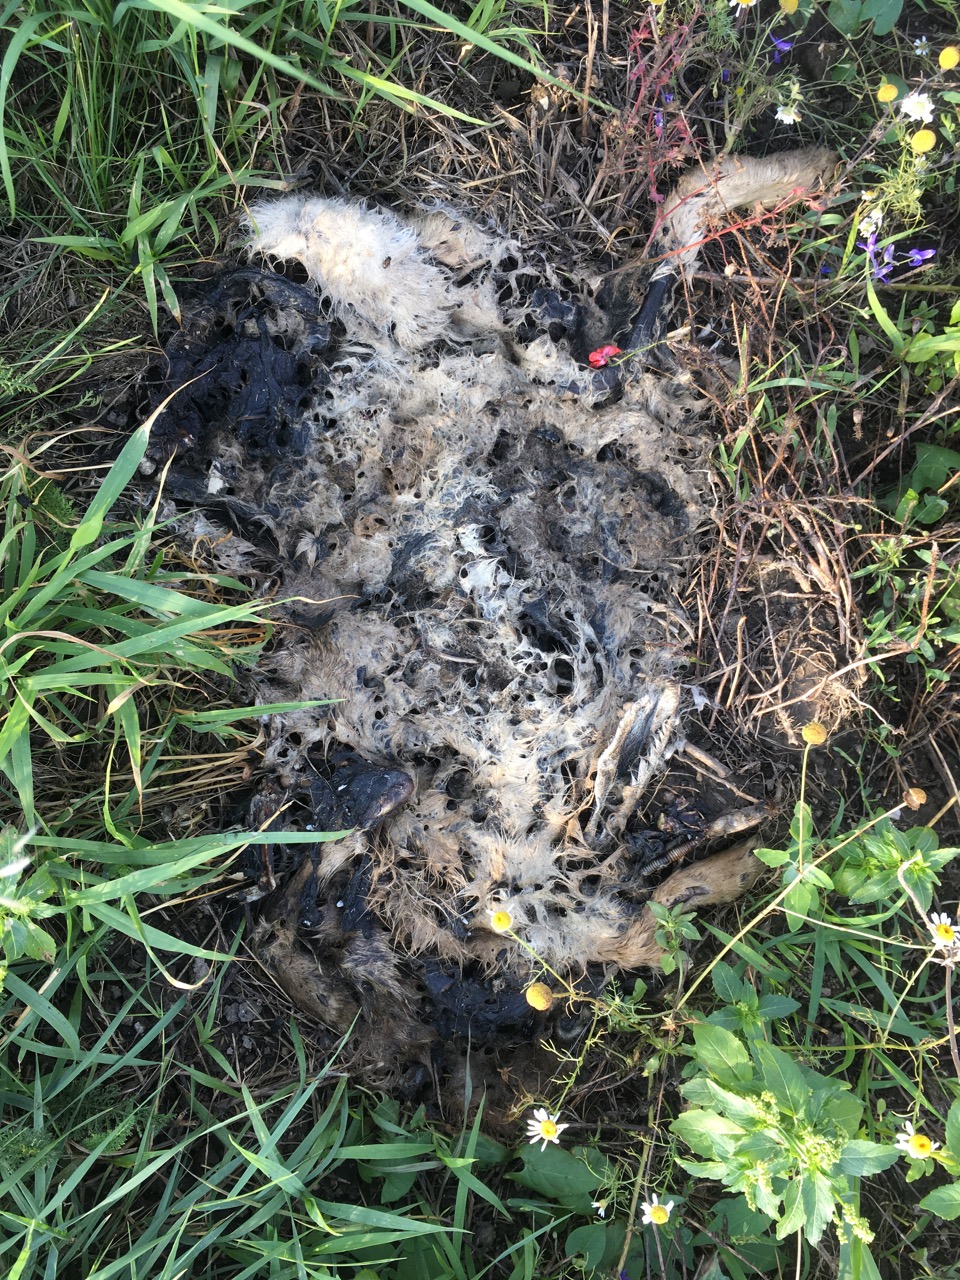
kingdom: Animalia
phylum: Chordata
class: Mammalia
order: Lagomorpha
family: Leporidae
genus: Lepus
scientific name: Lepus europaeus
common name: European hare
